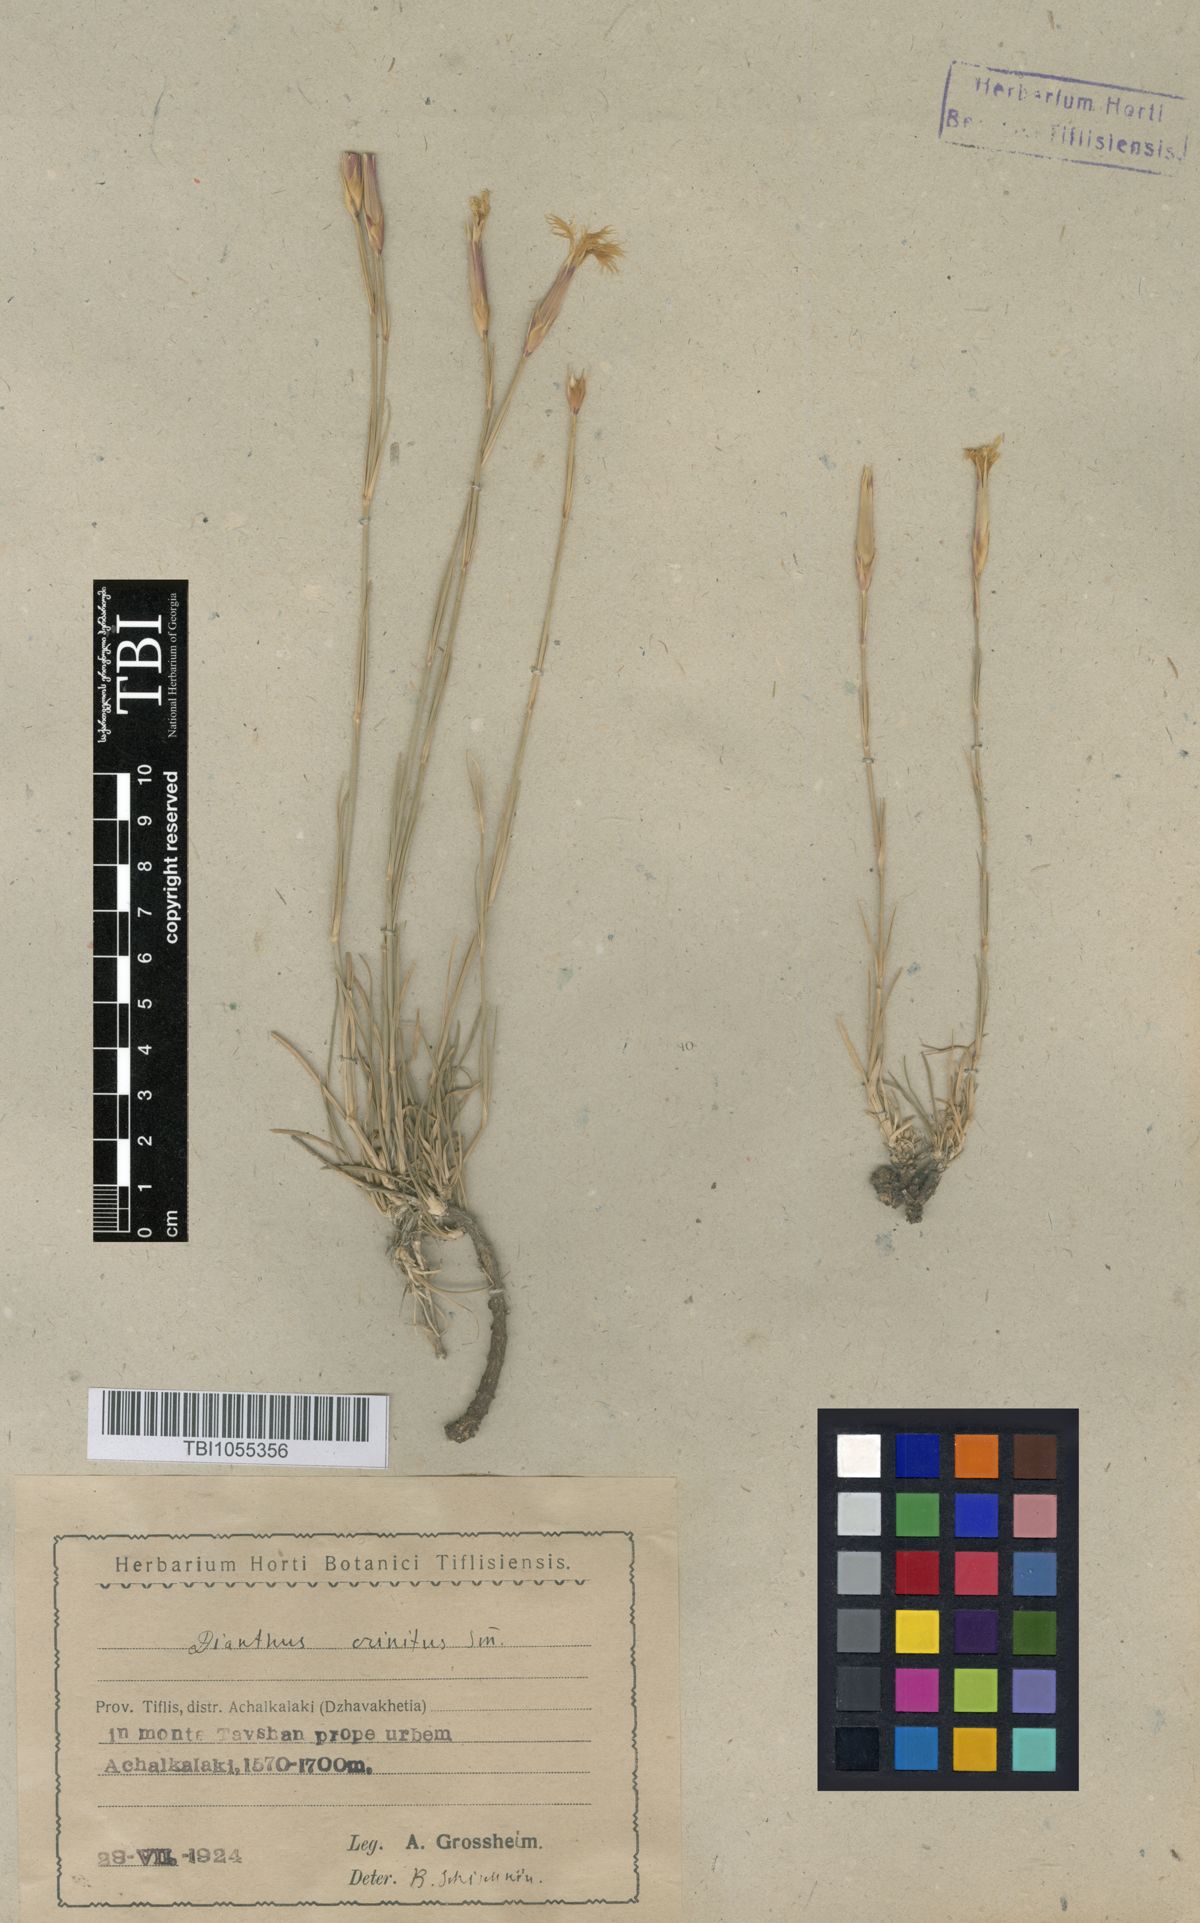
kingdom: Plantae
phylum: Tracheophyta
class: Magnoliopsida
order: Caryophyllales
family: Caryophyllaceae
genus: Dianthus
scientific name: Dianthus crinitus
